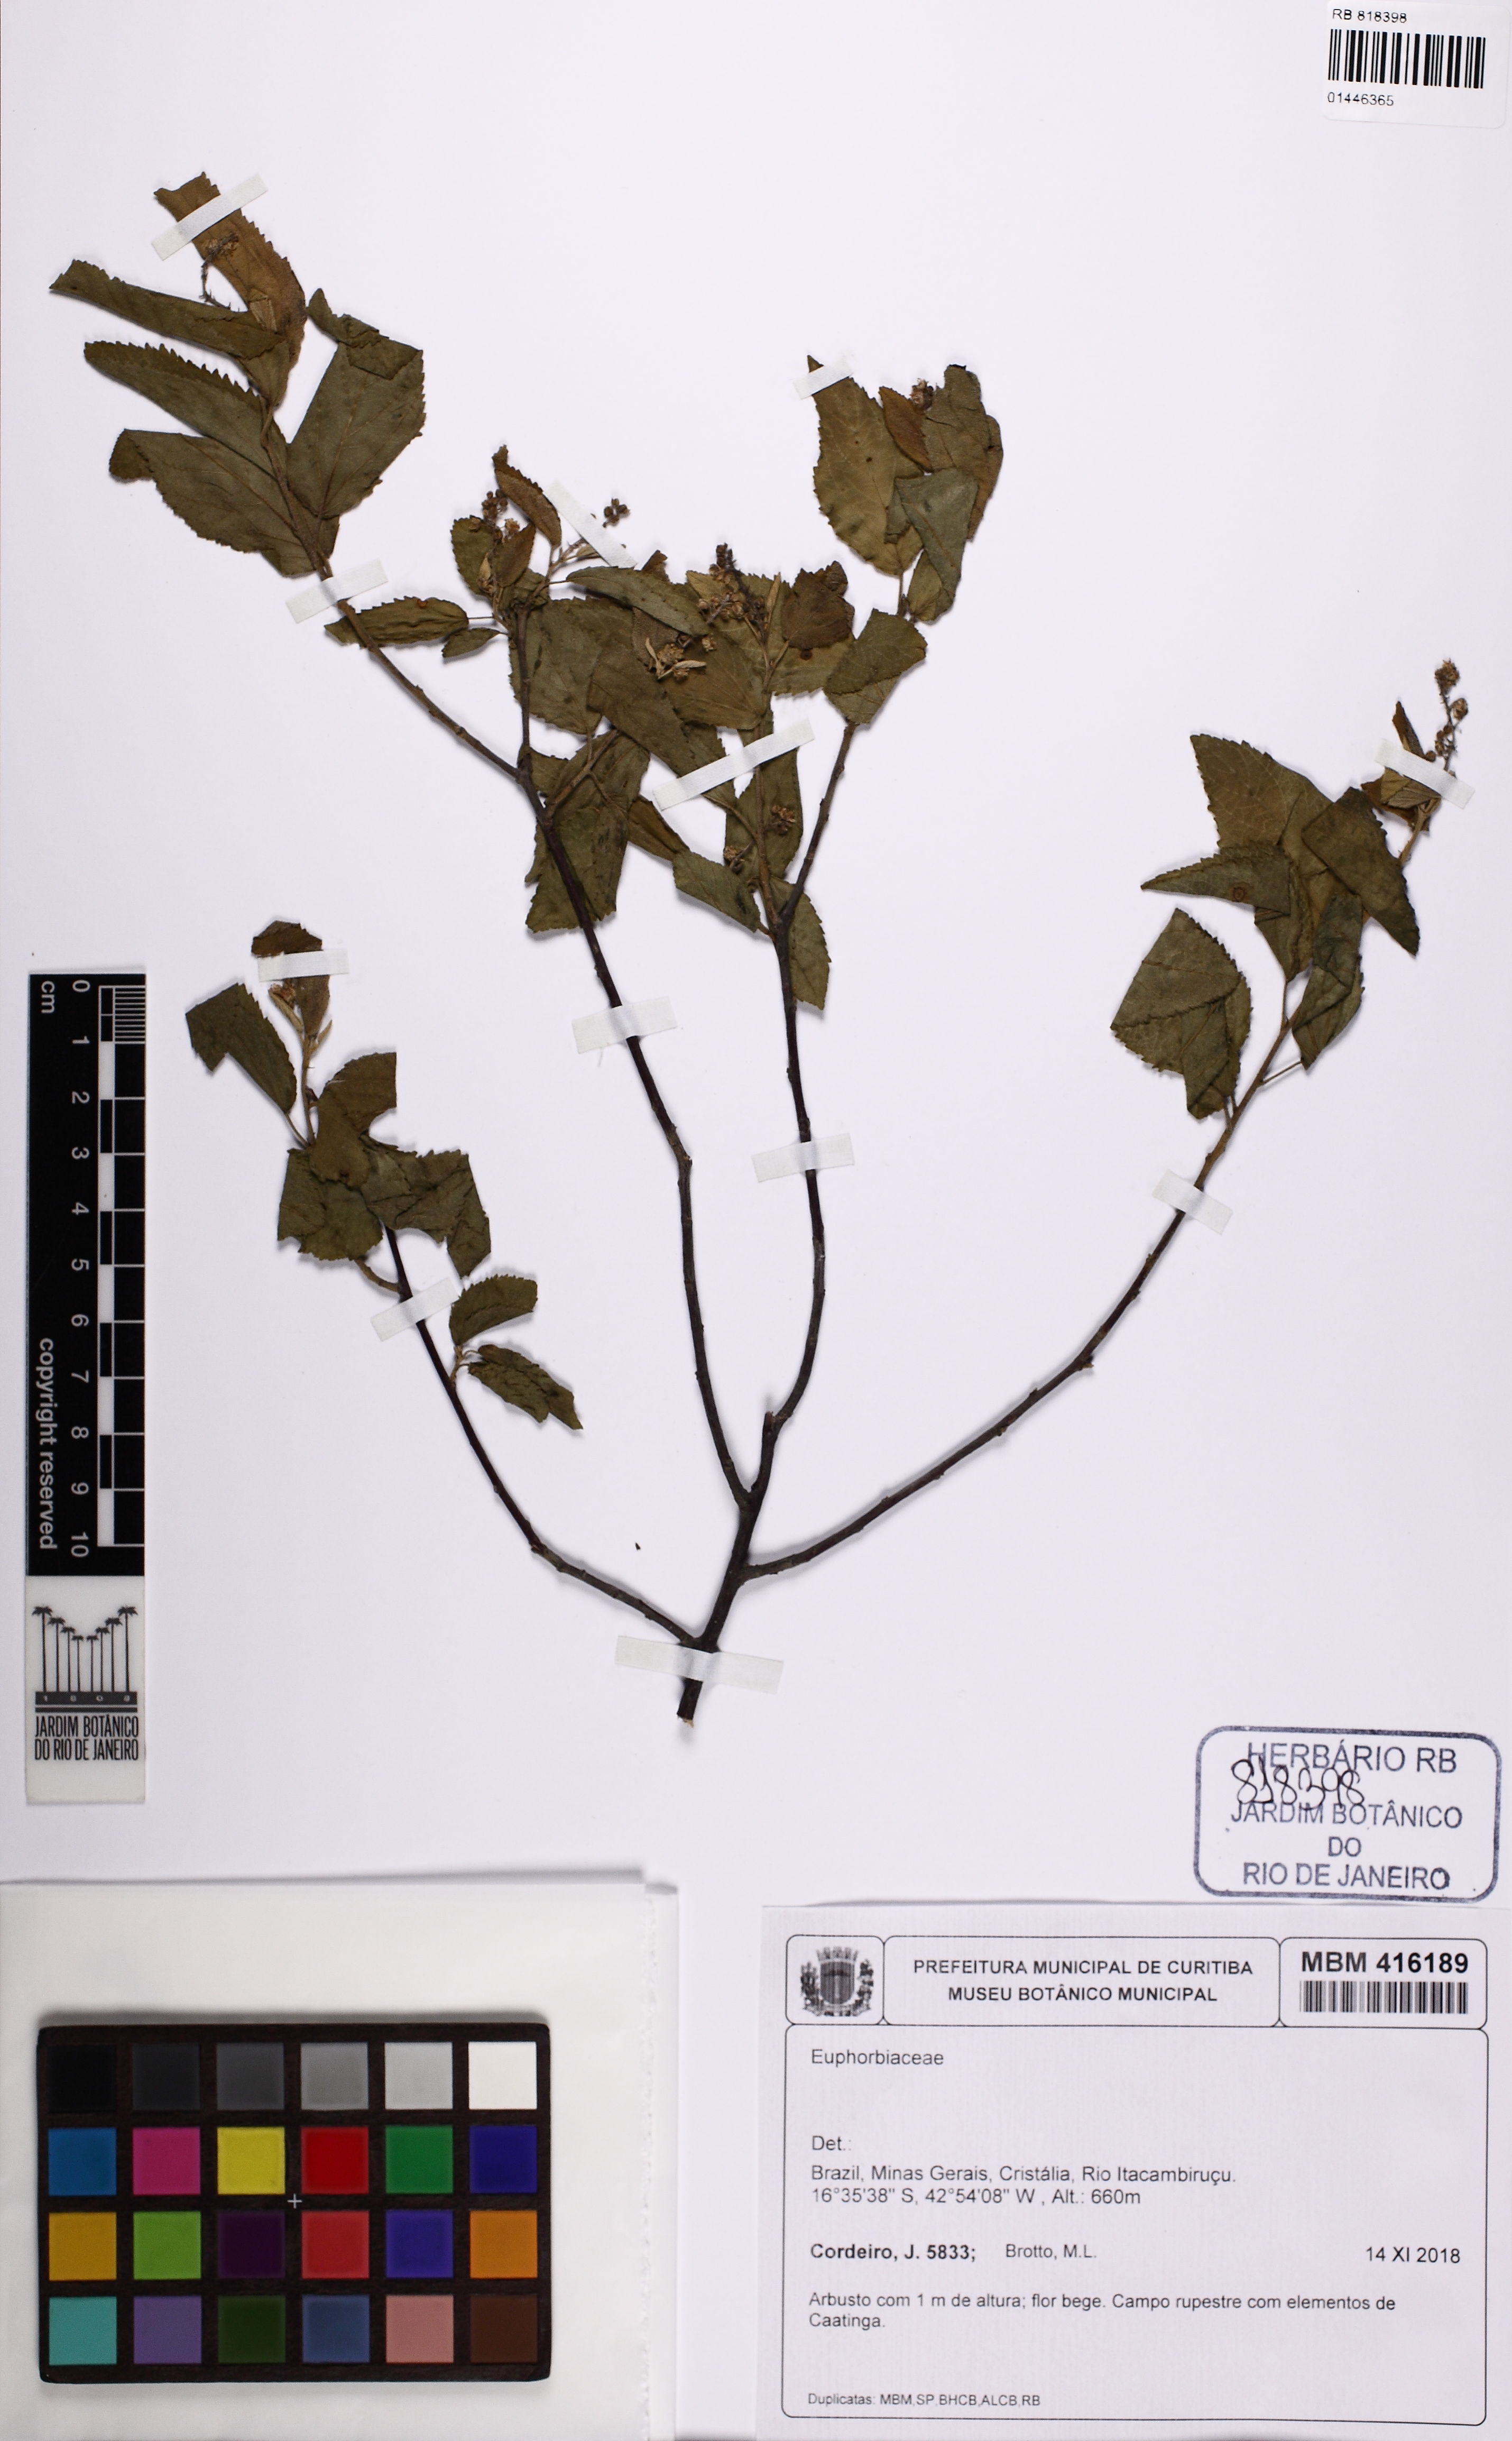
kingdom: Plantae
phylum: Tracheophyta
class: Magnoliopsida
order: Malpighiales
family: Euphorbiaceae
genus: Croton
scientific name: Croton
